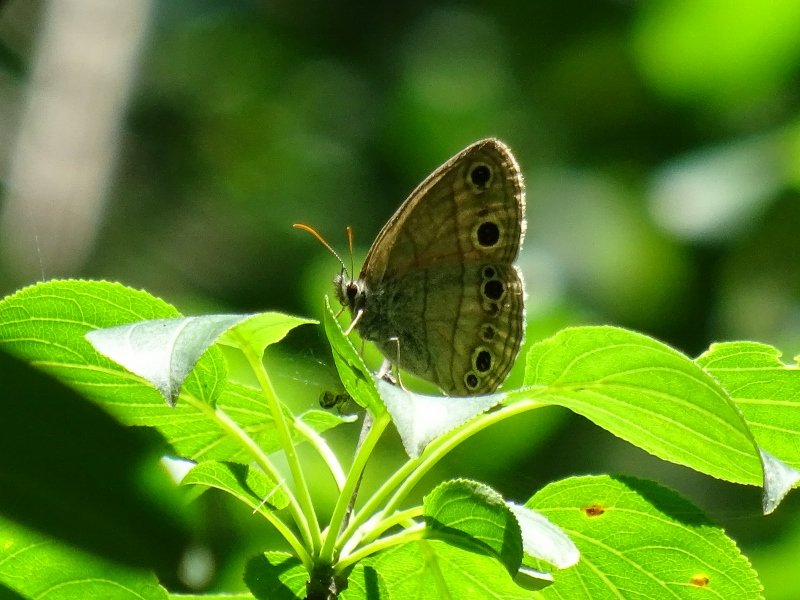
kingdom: Animalia
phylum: Arthropoda
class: Insecta
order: Lepidoptera
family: Nymphalidae
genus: Euptychia
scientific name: Euptychia cymela
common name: Little Wood Satyr
